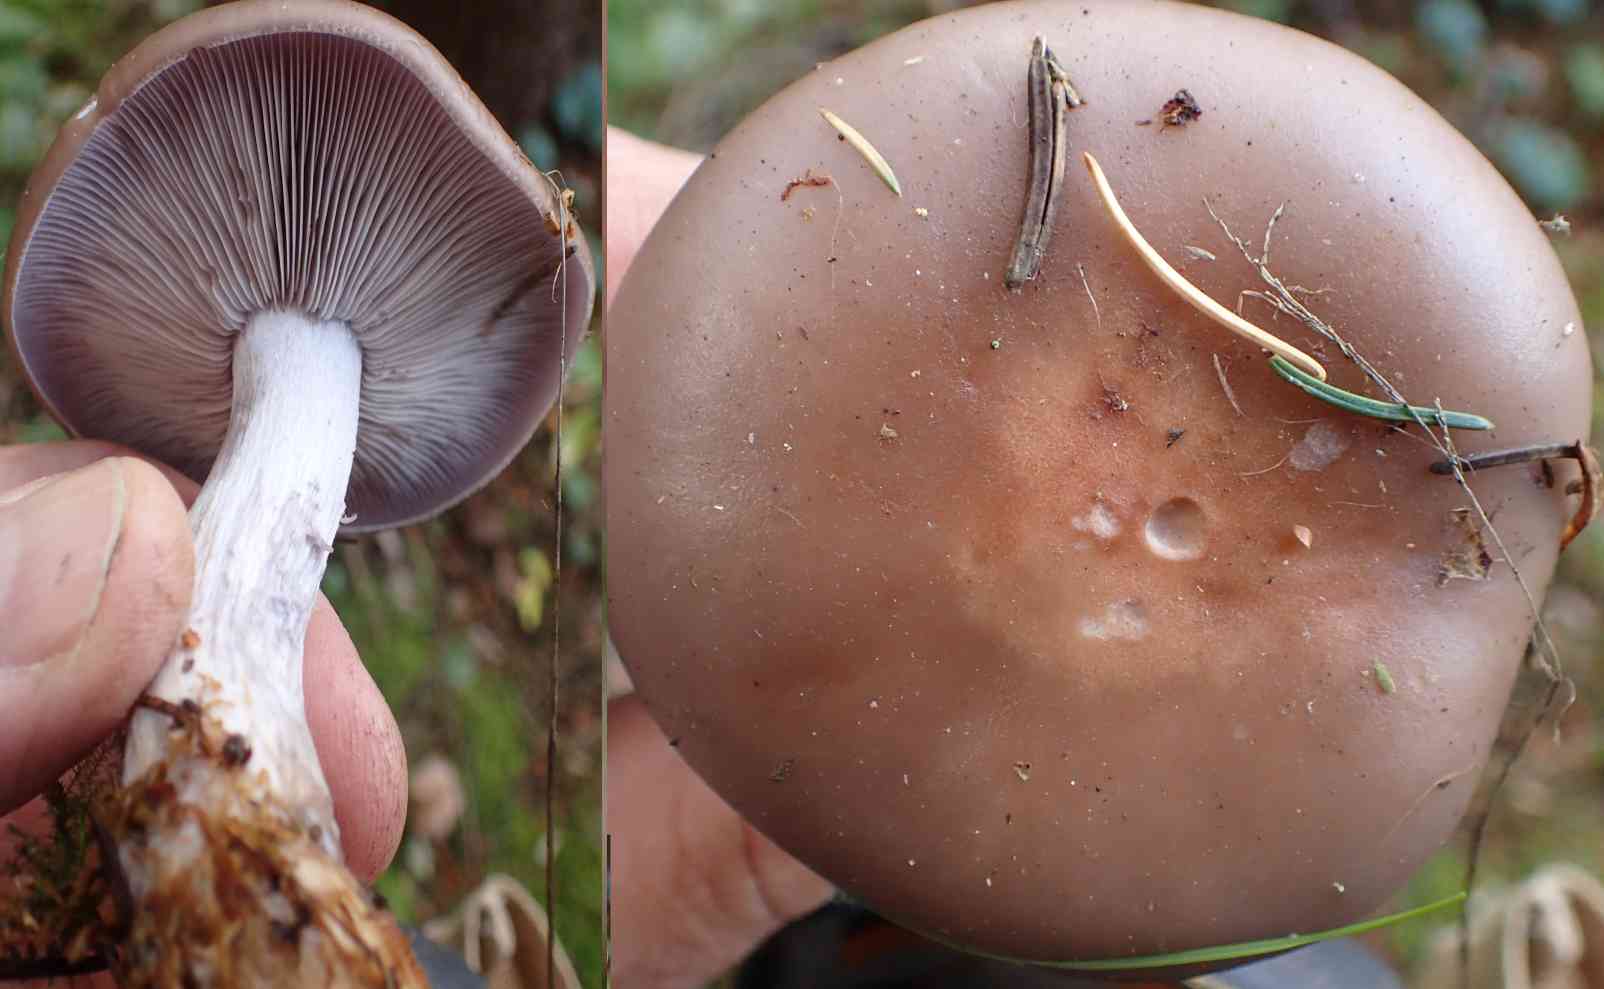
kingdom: Fungi
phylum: Basidiomycota
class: Agaricomycetes
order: Agaricales
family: Tricholomataceae
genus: Lepista
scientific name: Lepista nuda
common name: violet hekseringshat
